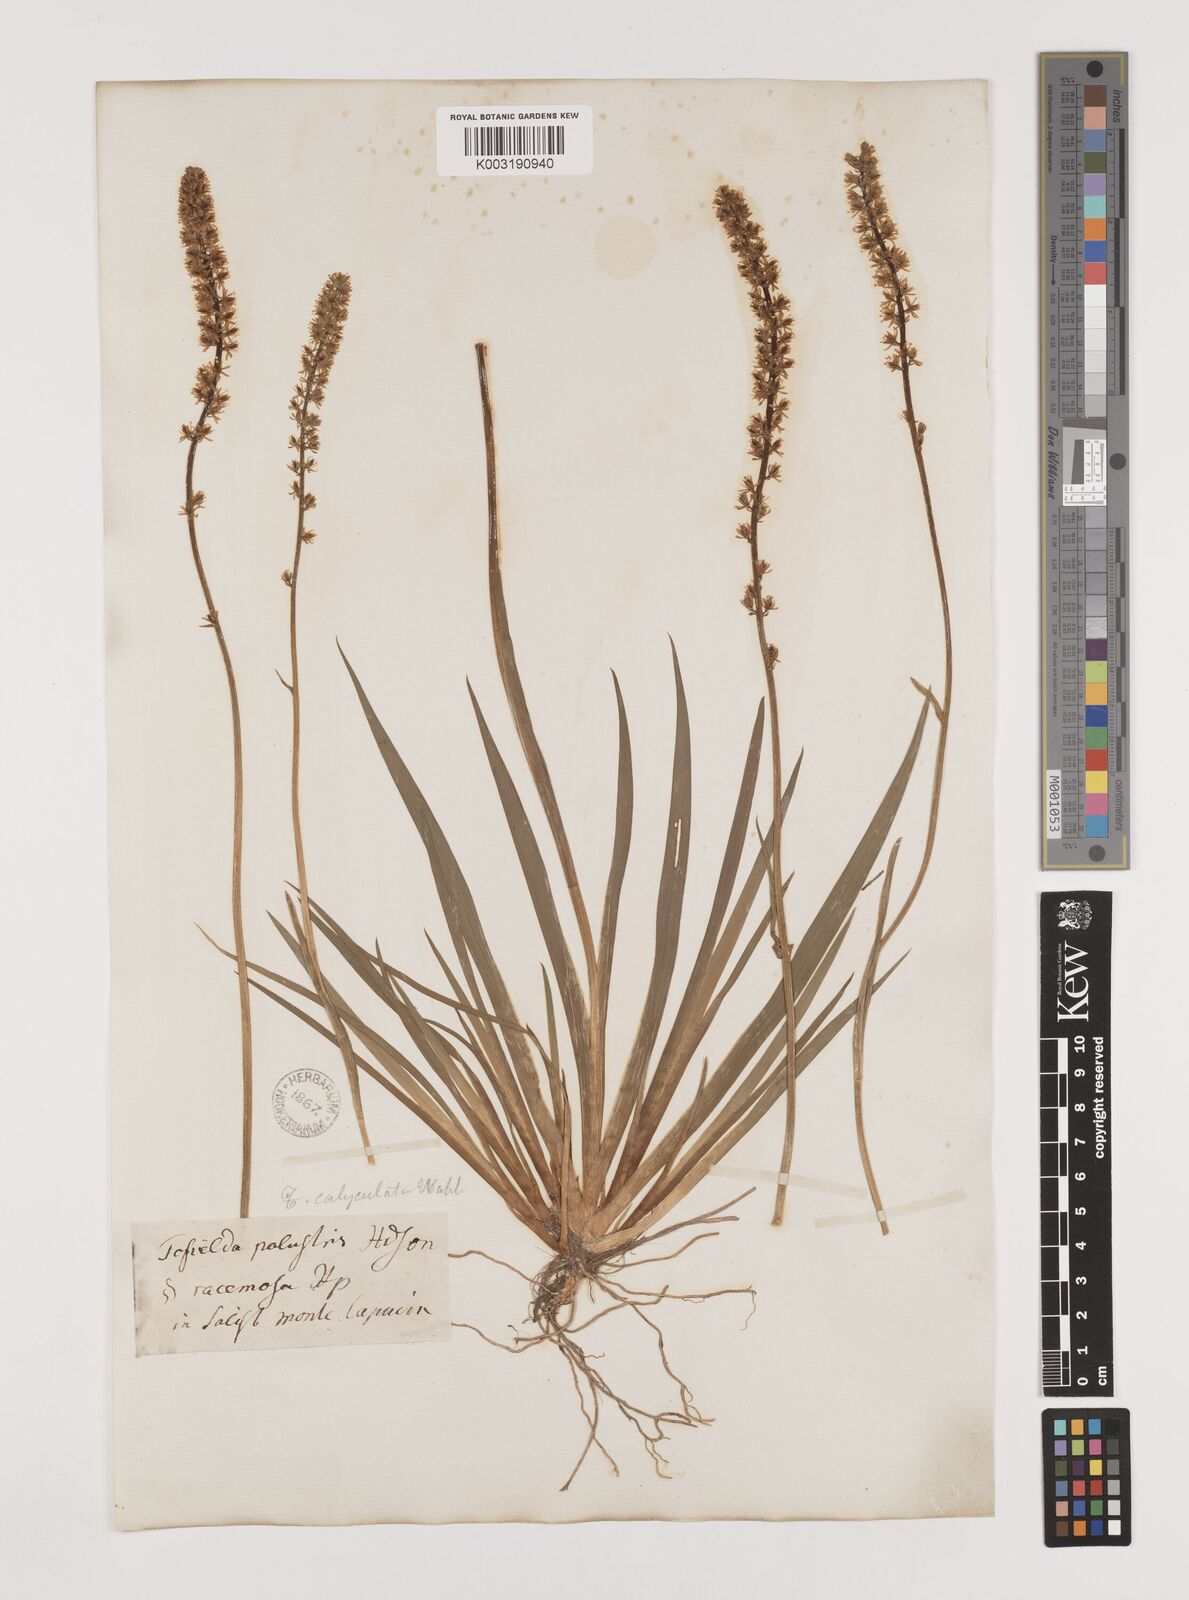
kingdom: Plantae
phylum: Tracheophyta
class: Liliopsida
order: Alismatales
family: Tofieldiaceae
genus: Tofieldia
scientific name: Tofieldia calyculata
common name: German-asphodel
